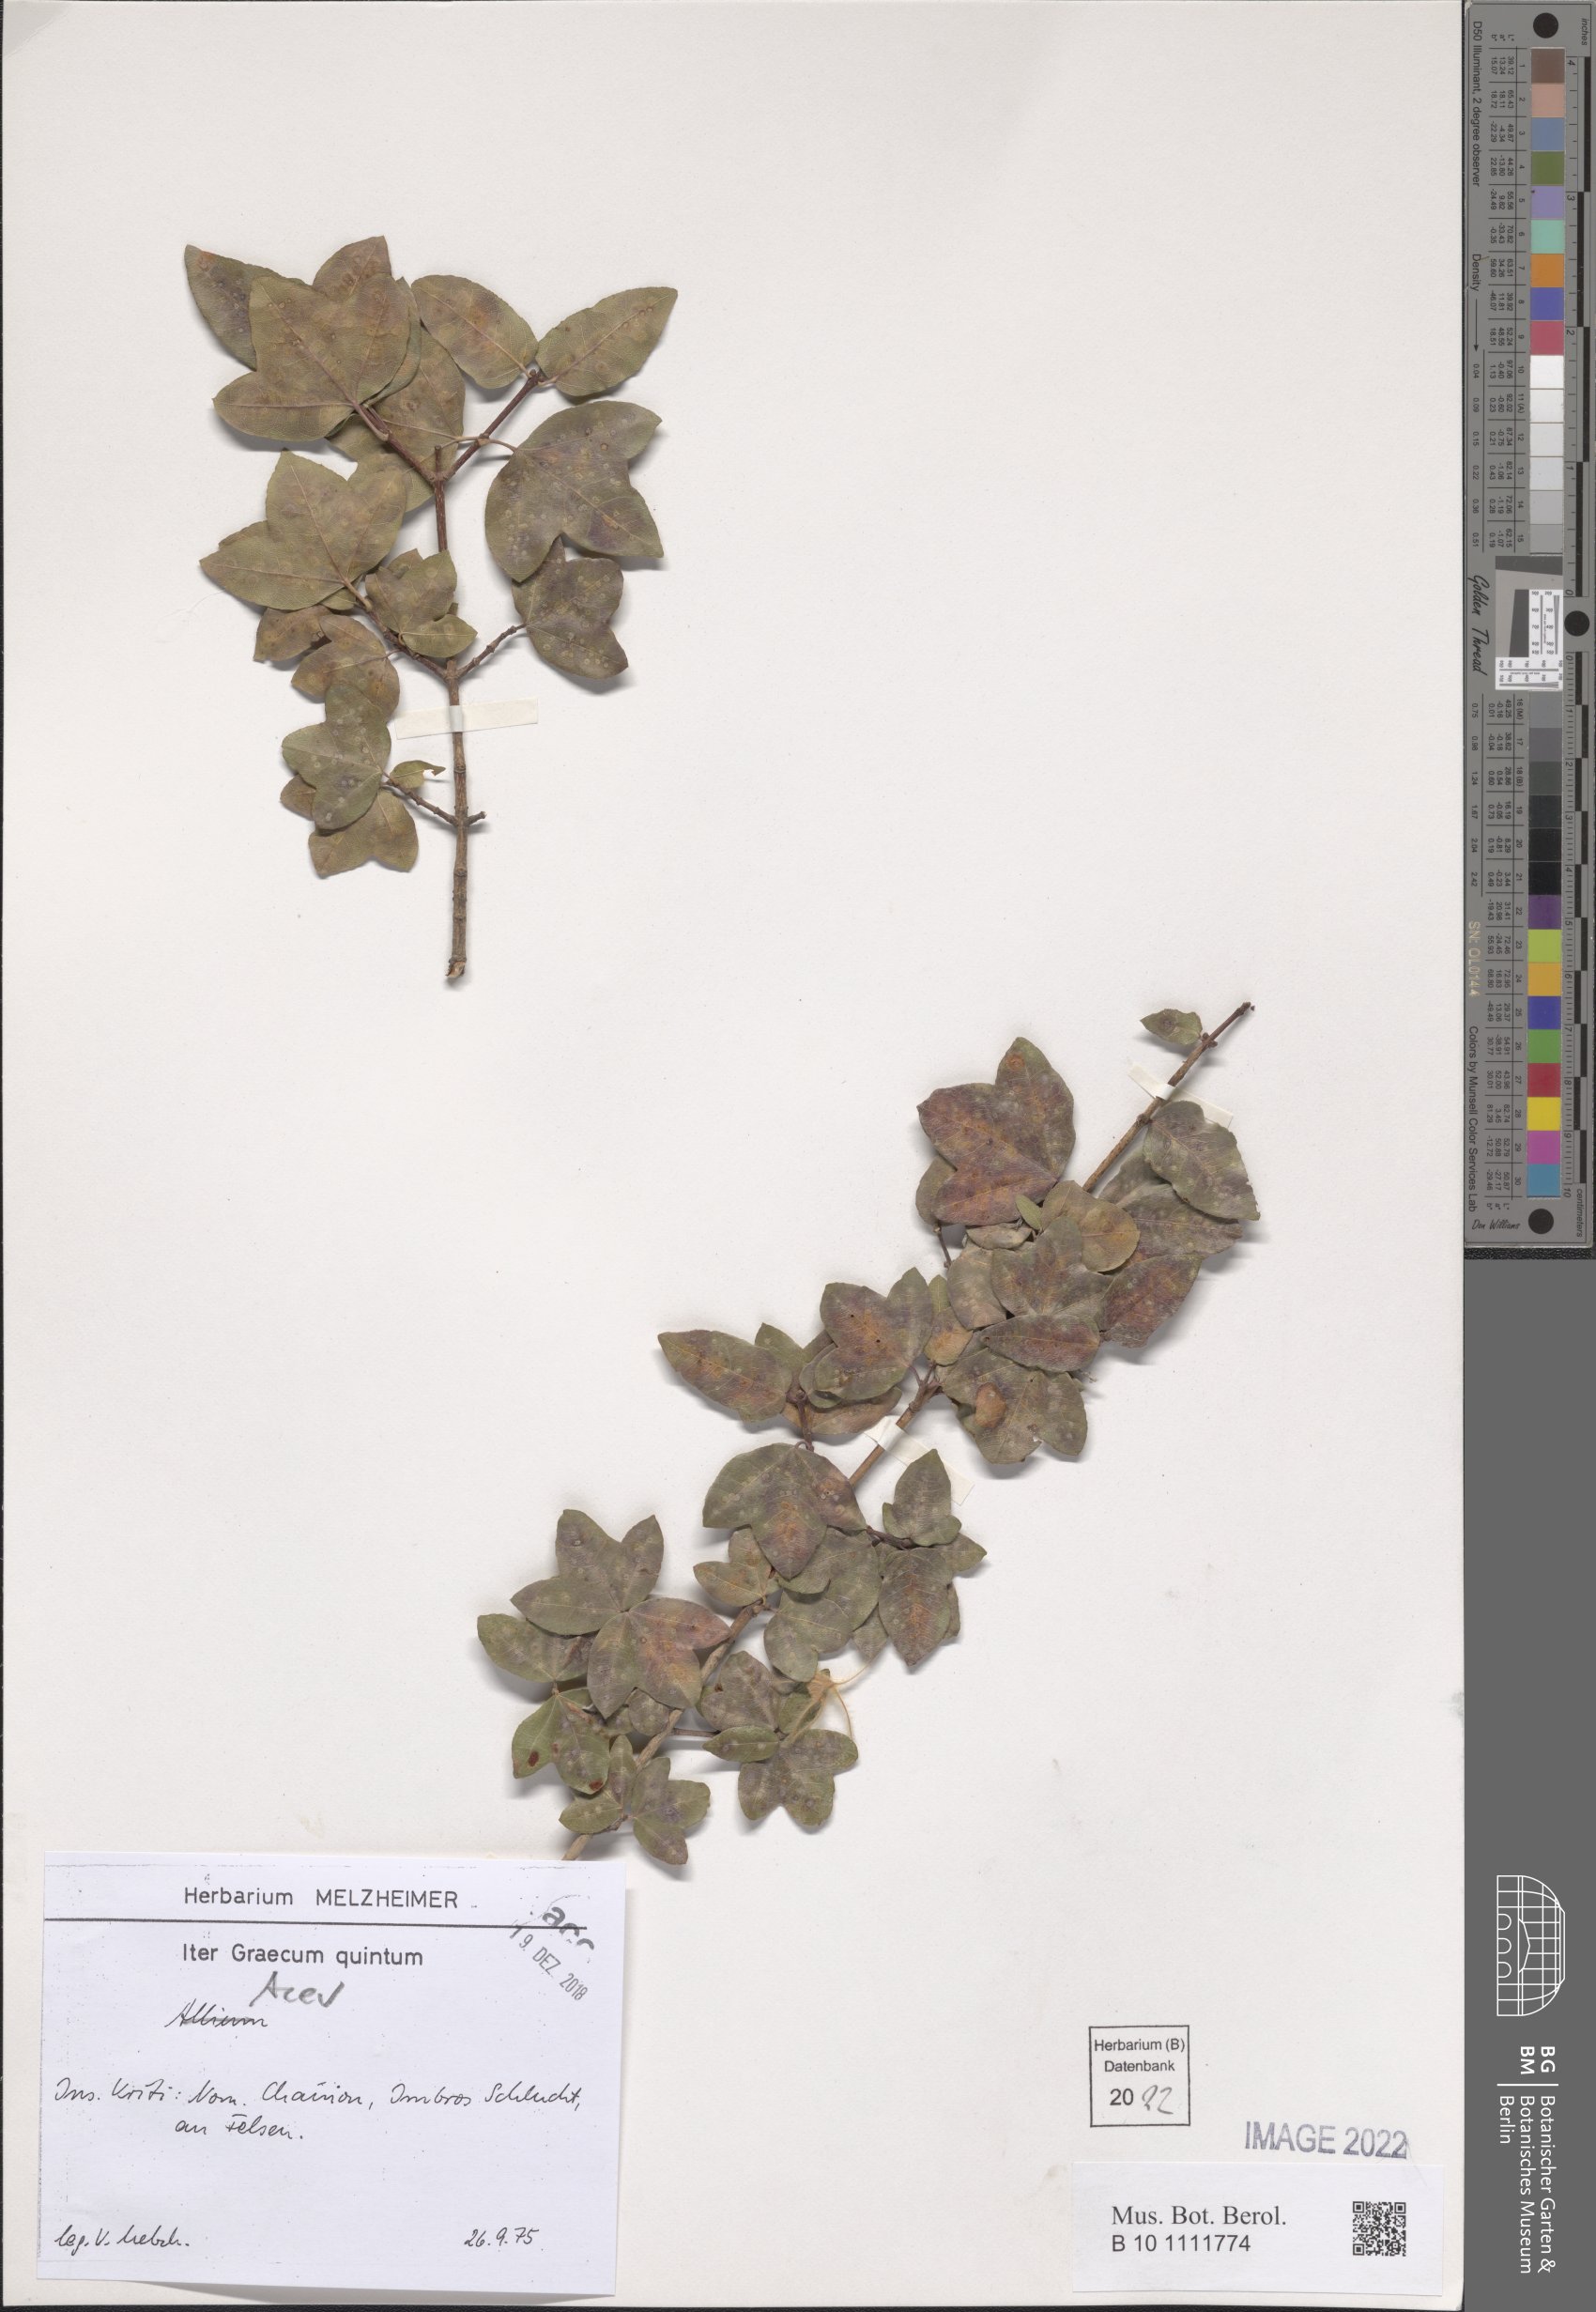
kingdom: Plantae
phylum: Tracheophyta
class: Magnoliopsida
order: Sapindales
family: Sapindaceae
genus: Acer
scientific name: Acer
